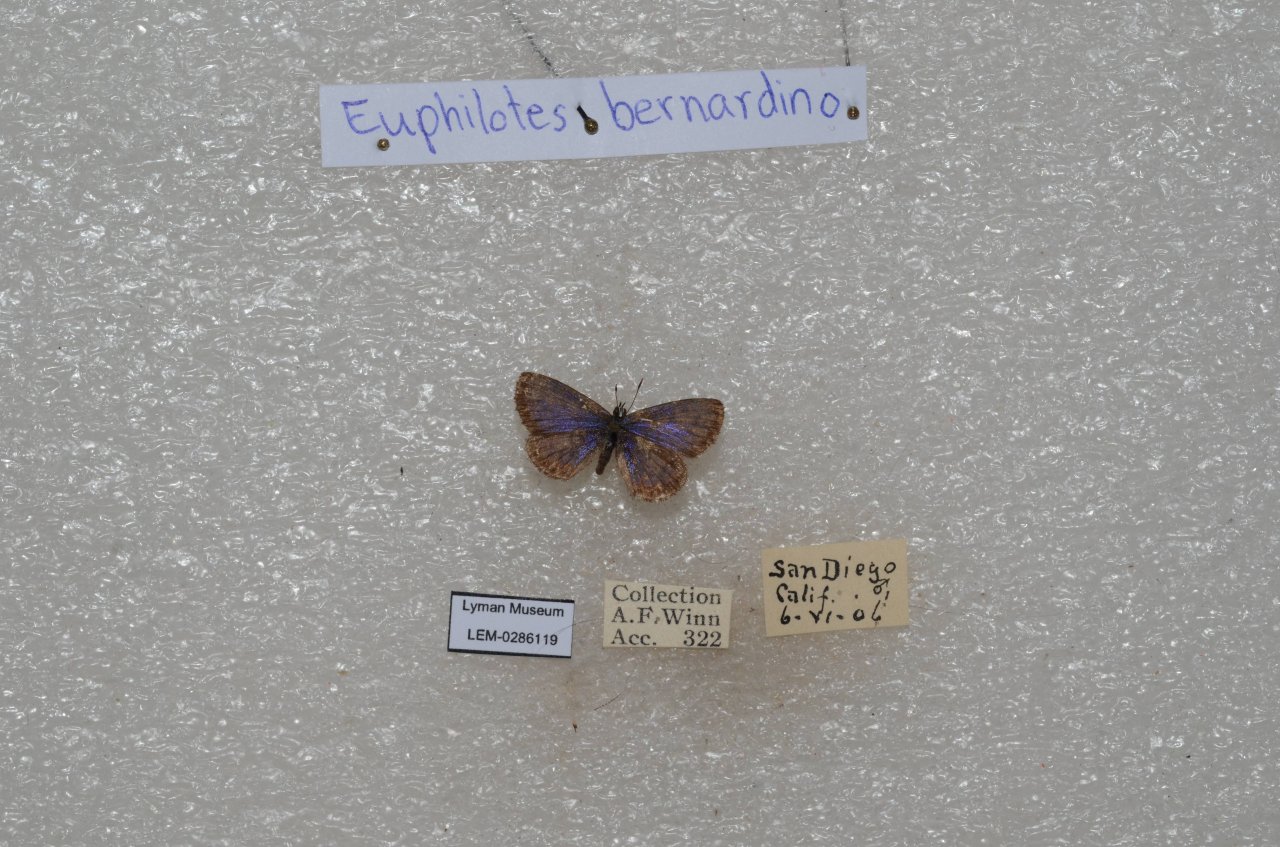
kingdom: Animalia
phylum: Arthropoda
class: Insecta
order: Lepidoptera
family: Lycaenidae
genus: Euphilotes
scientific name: Euphilotes battoides
